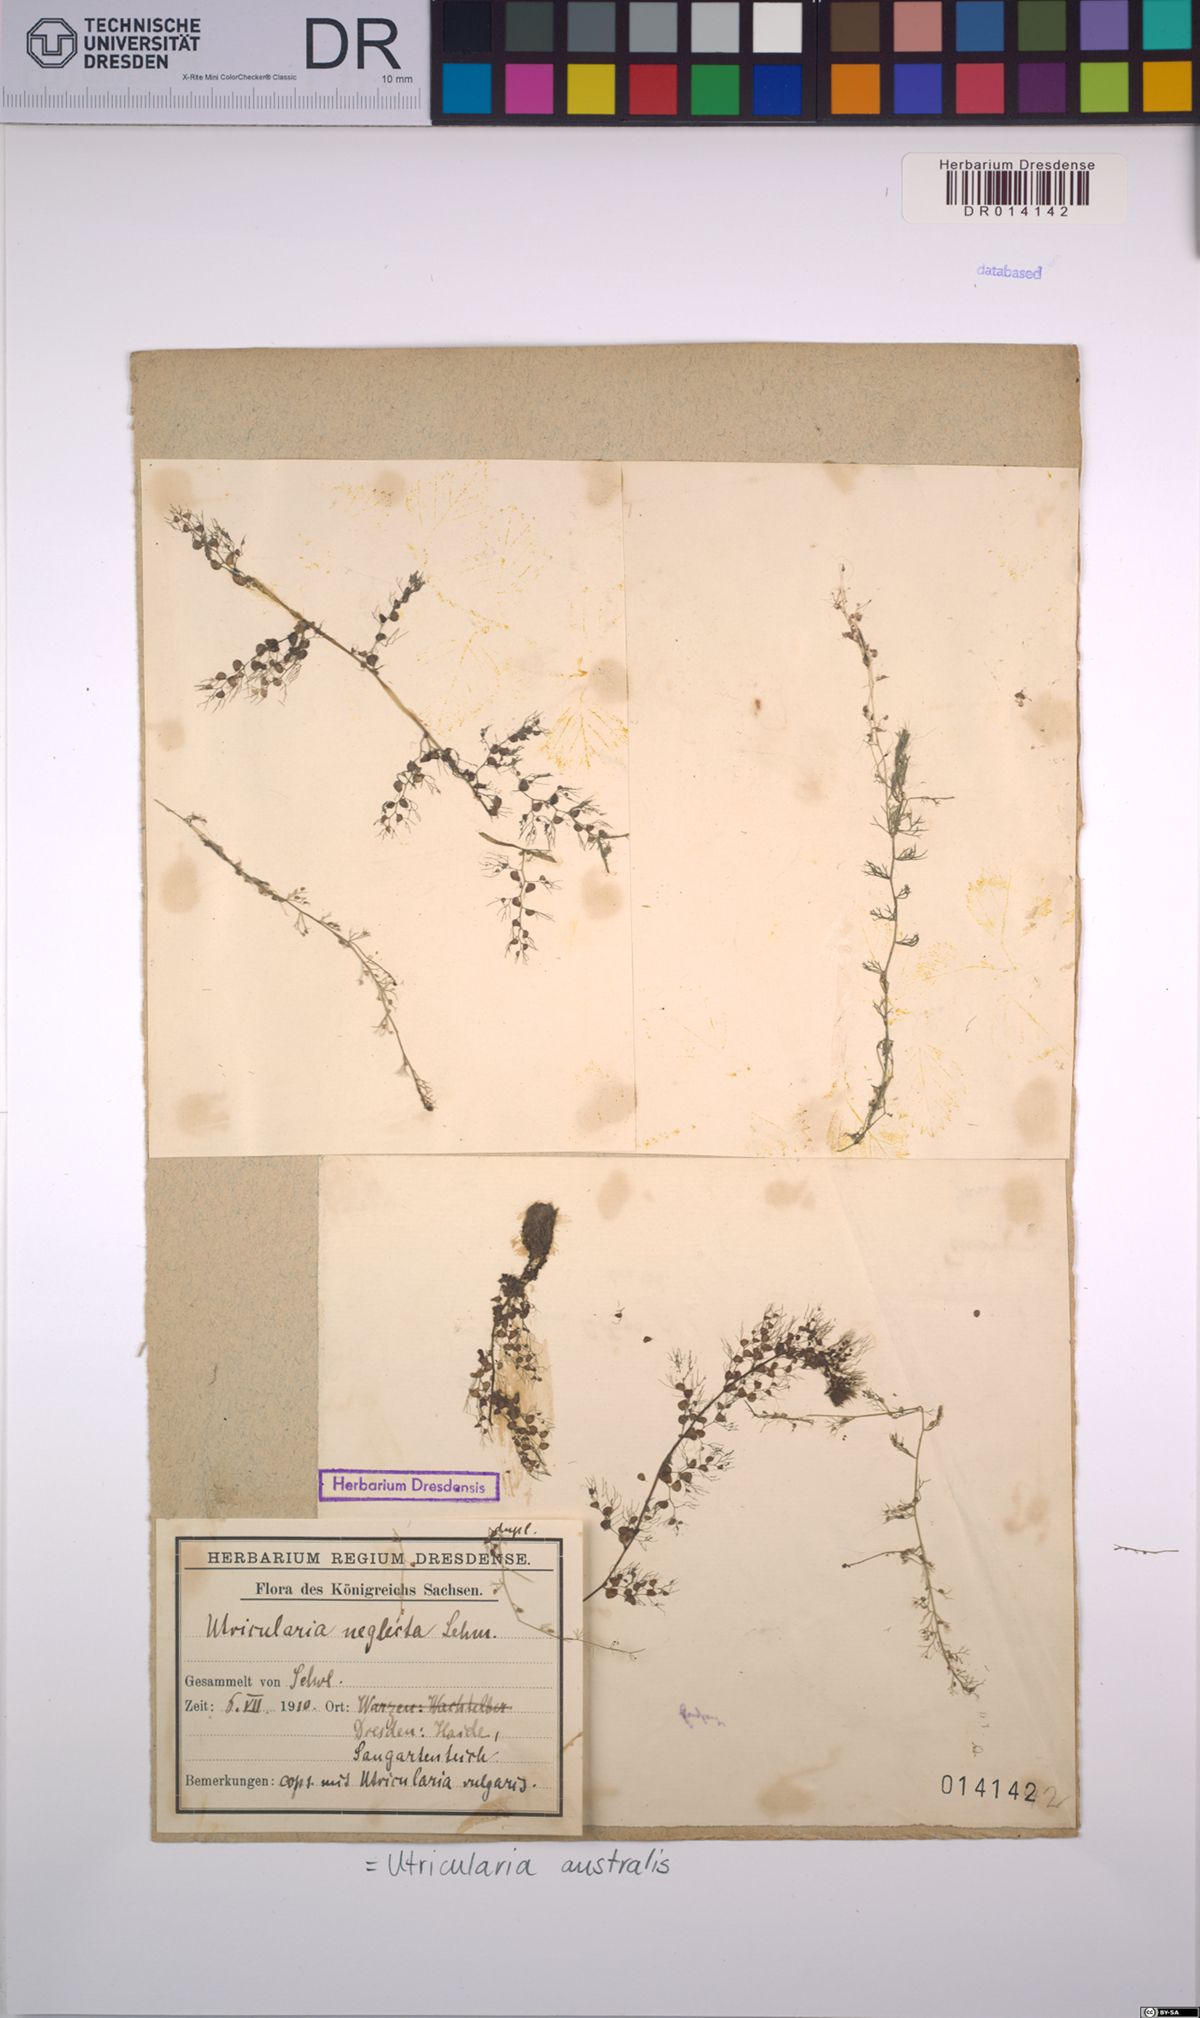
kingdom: Plantae
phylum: Tracheophyta
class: Magnoliopsida
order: Lamiales
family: Lentibulariaceae
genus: Utricularia
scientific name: Utricularia australis
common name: Bladderwort
